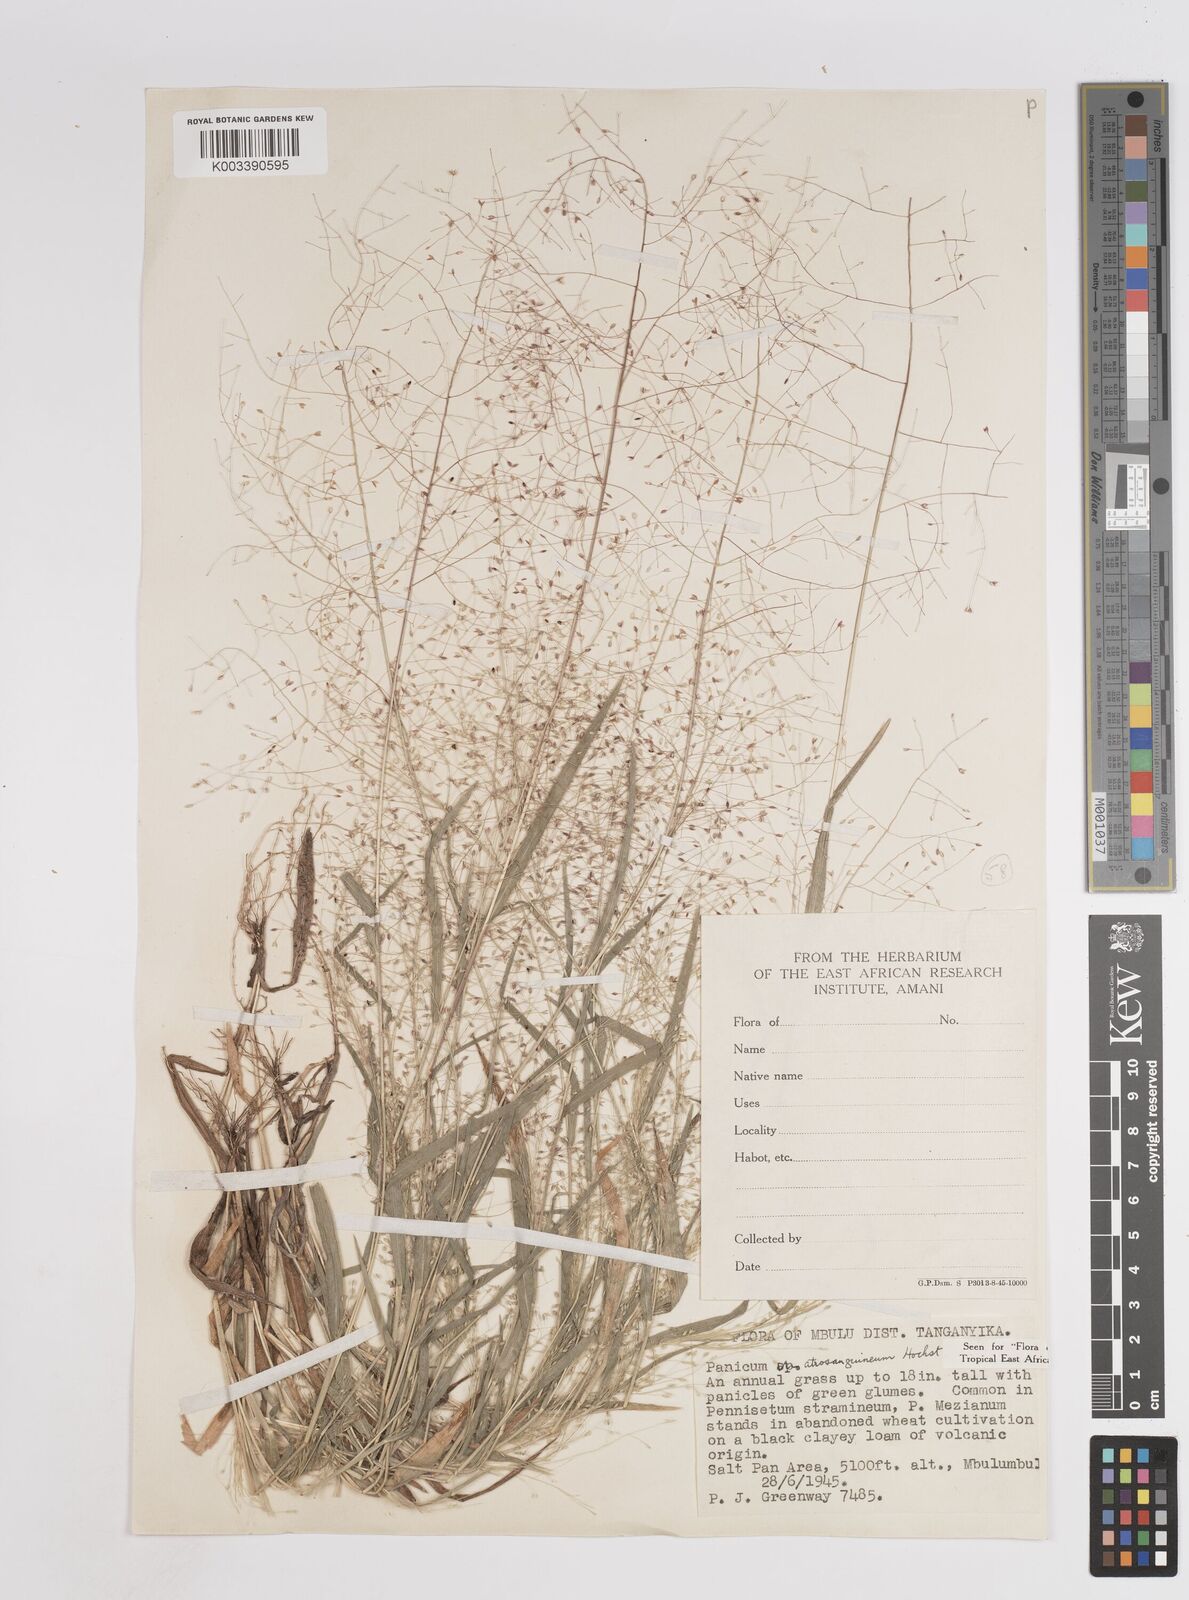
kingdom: Plantae
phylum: Tracheophyta
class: Liliopsida
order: Poales
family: Poaceae
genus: Panicum
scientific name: Panicum atrosanguineum
